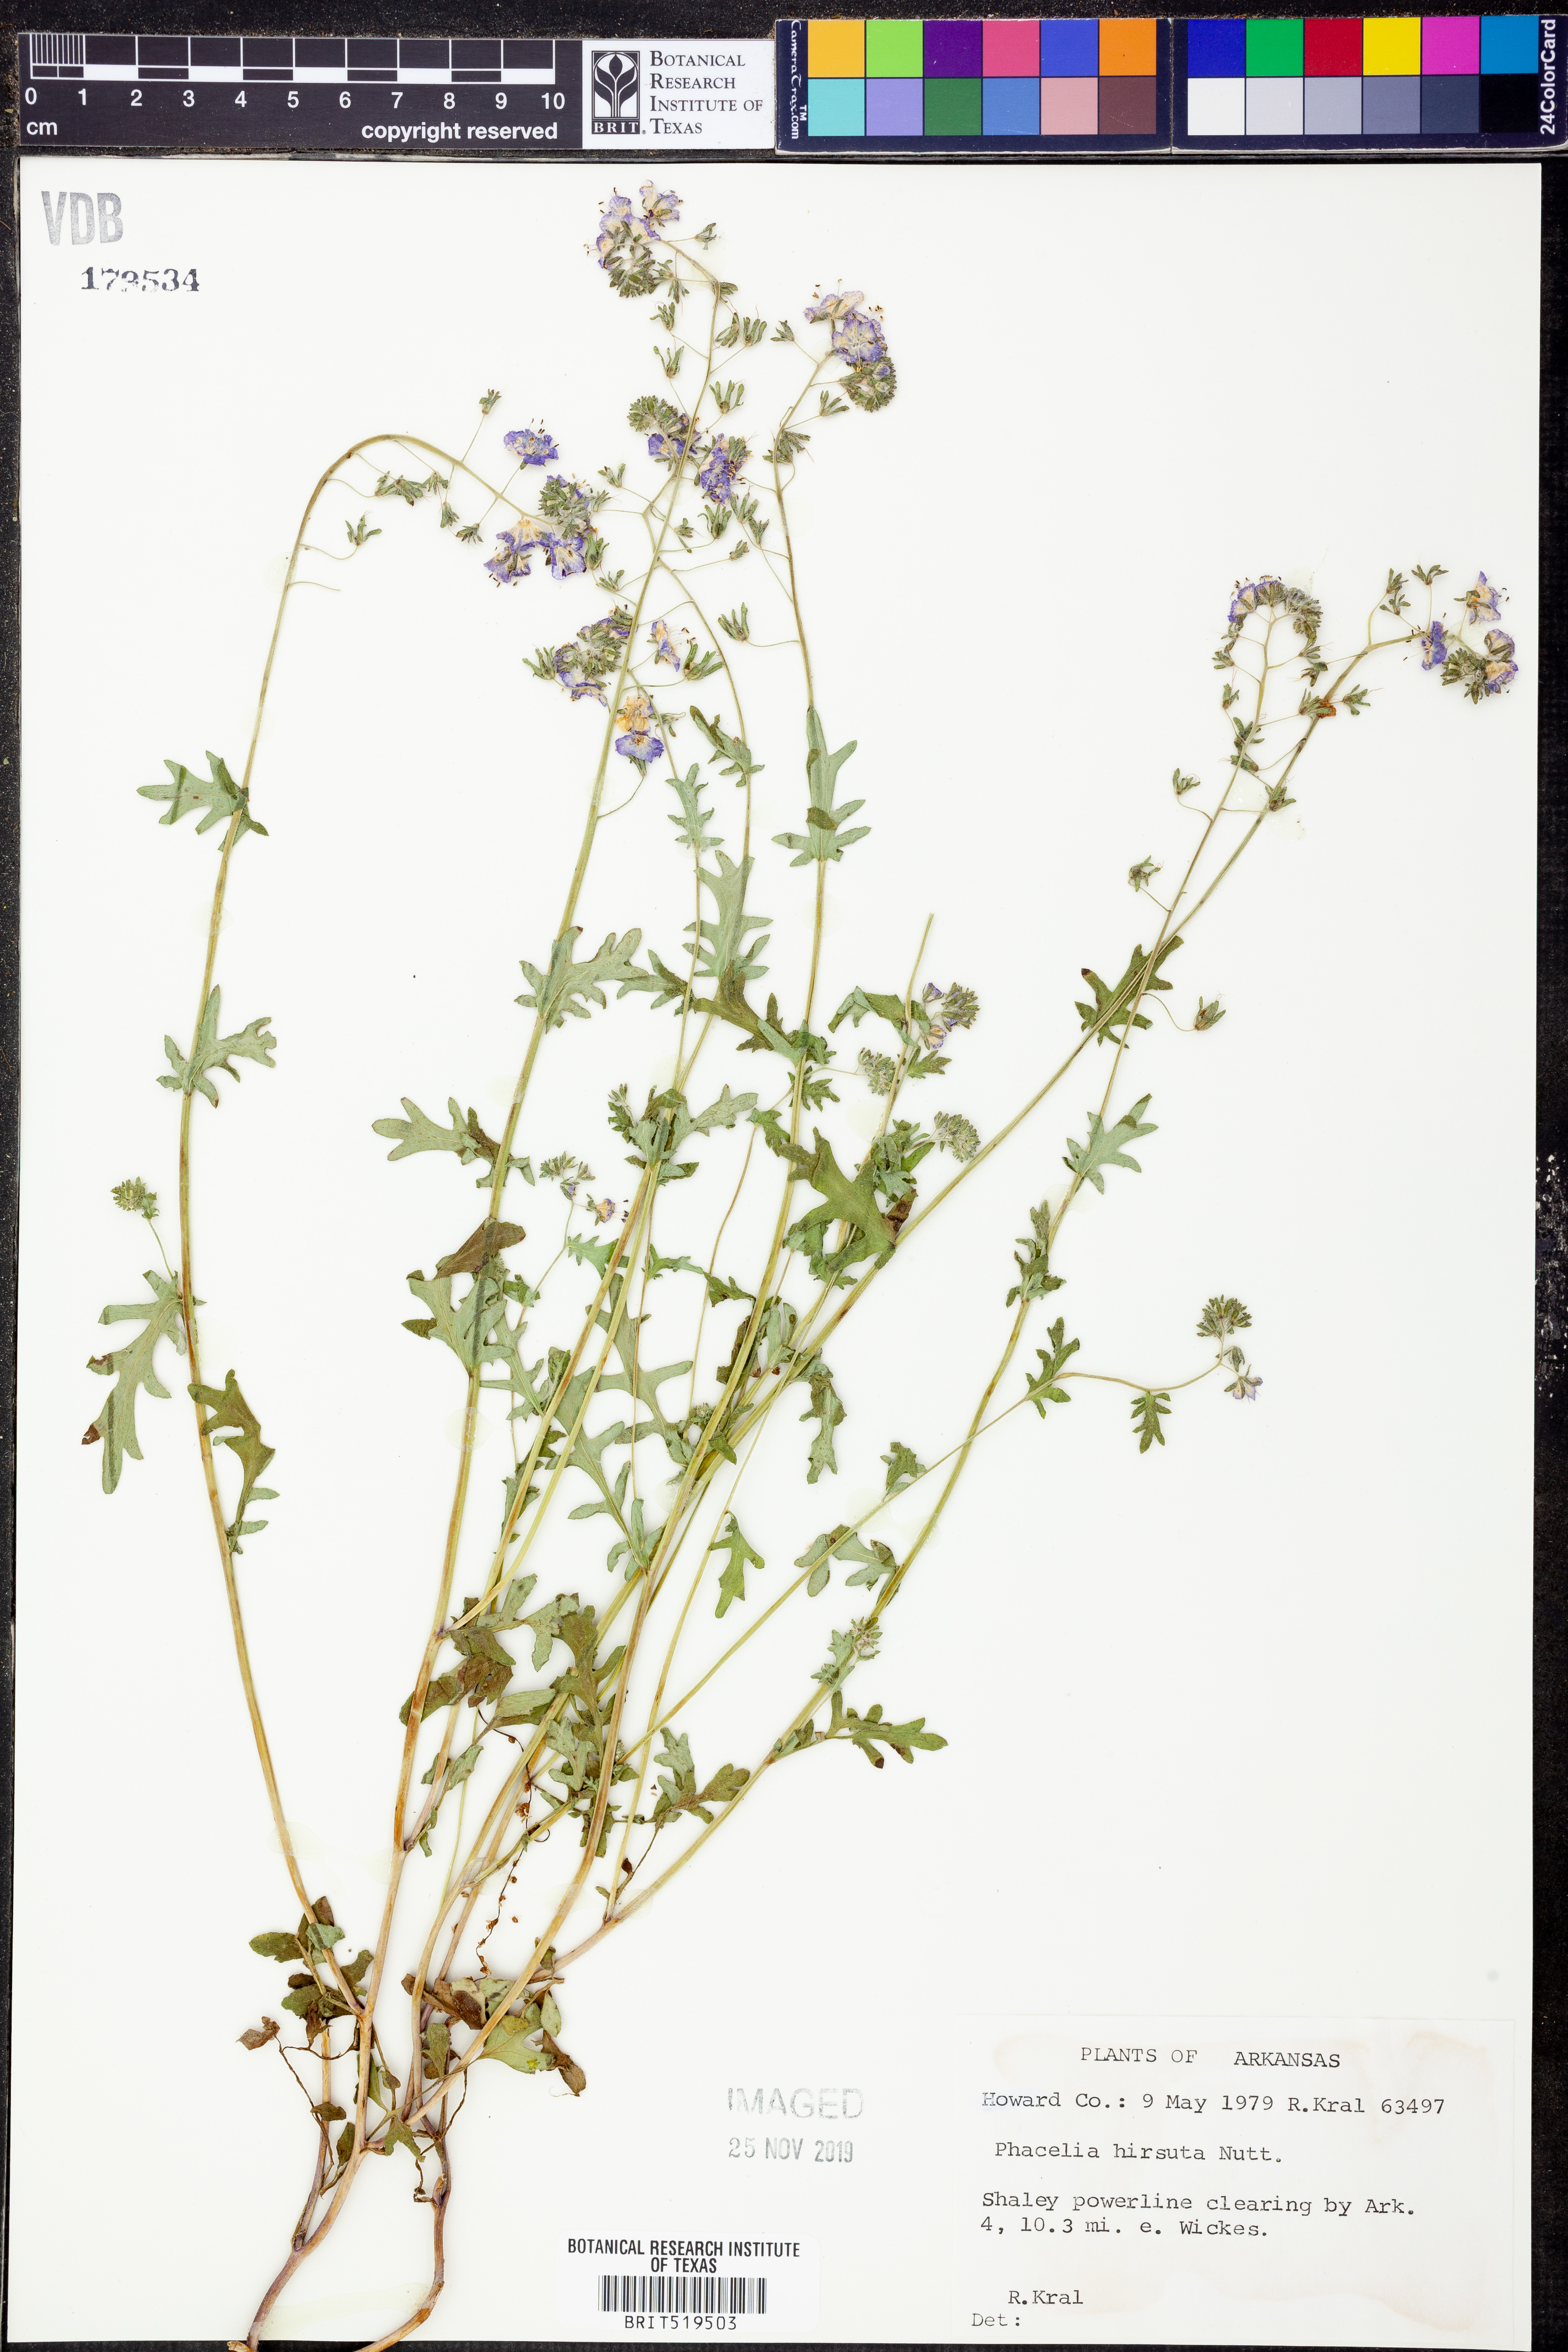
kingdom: Plantae
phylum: Tracheophyta
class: Magnoliopsida
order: Boraginales
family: Hydrophyllaceae
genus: Phacelia
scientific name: Phacelia hirsuta
